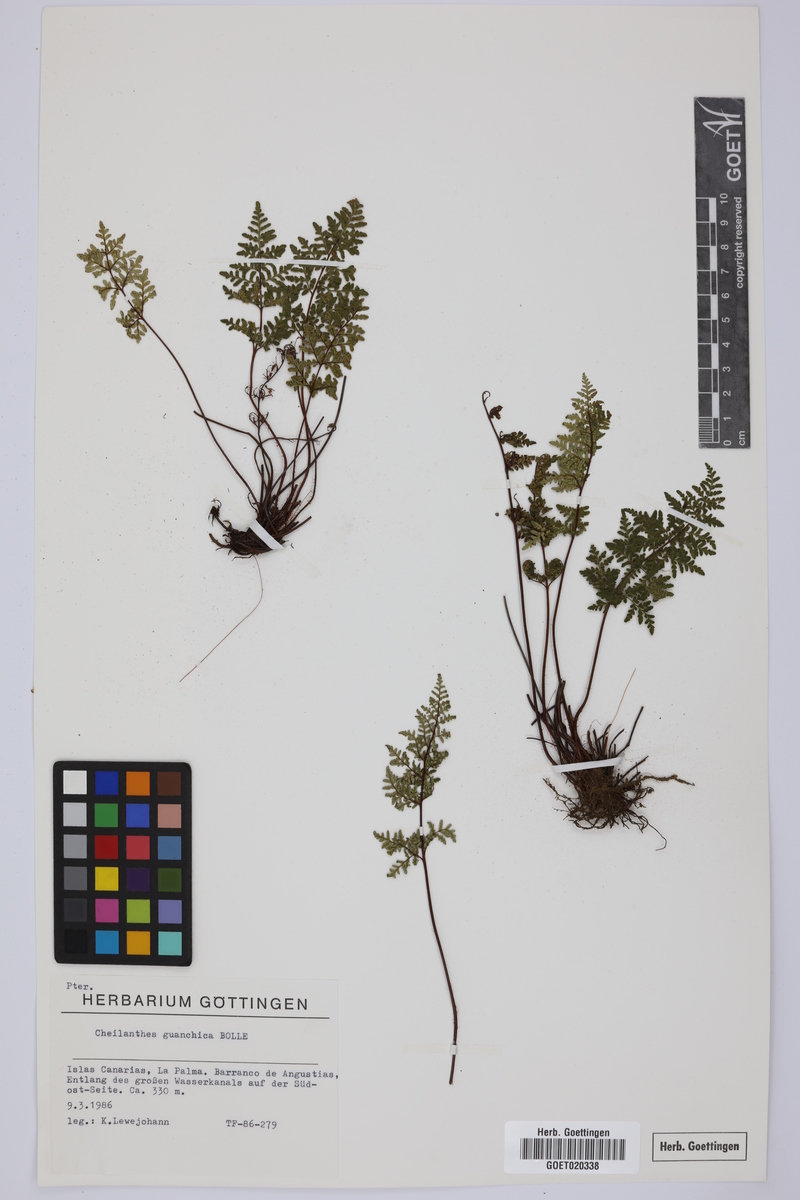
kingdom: Plantae
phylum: Tracheophyta
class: Polypodiopsida
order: Polypodiales
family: Pteridaceae
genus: Oeosporangium
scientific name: Oeosporangium guanchicum
